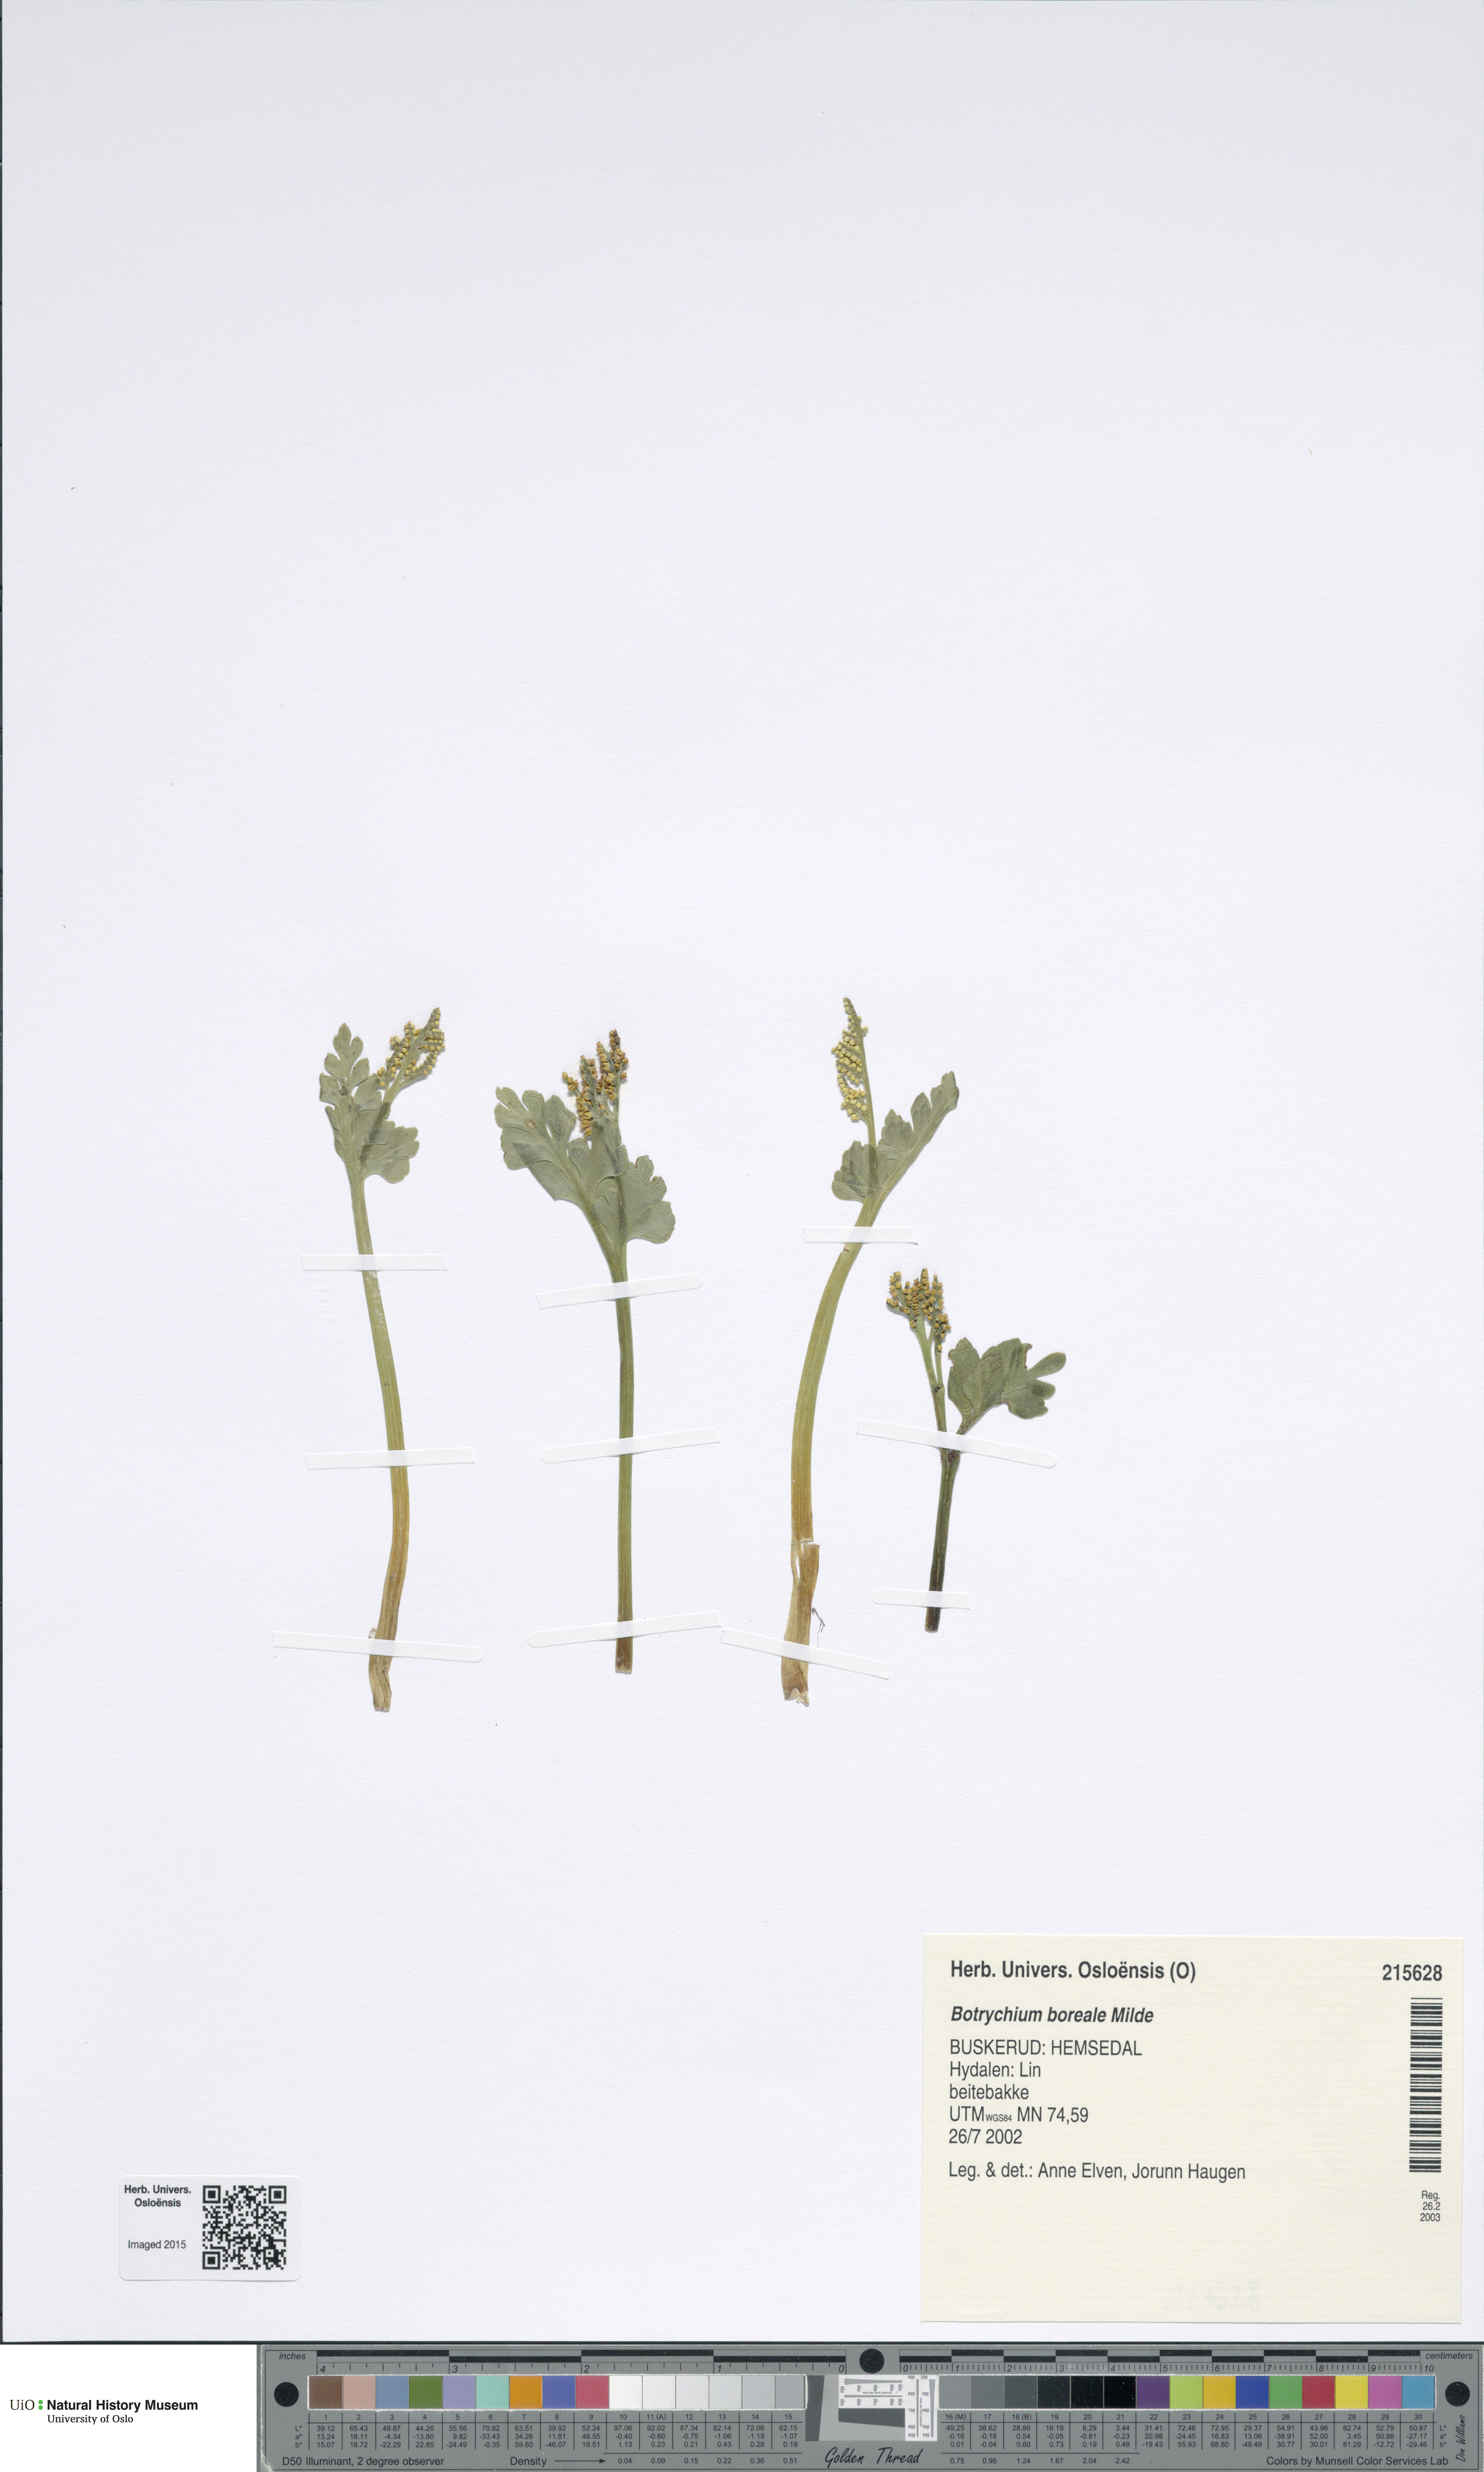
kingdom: Plantae
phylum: Tracheophyta
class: Polypodiopsida
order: Ophioglossales
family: Ophioglossaceae
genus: Botrychium
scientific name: Botrychium boreale
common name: Boreal moonwort
